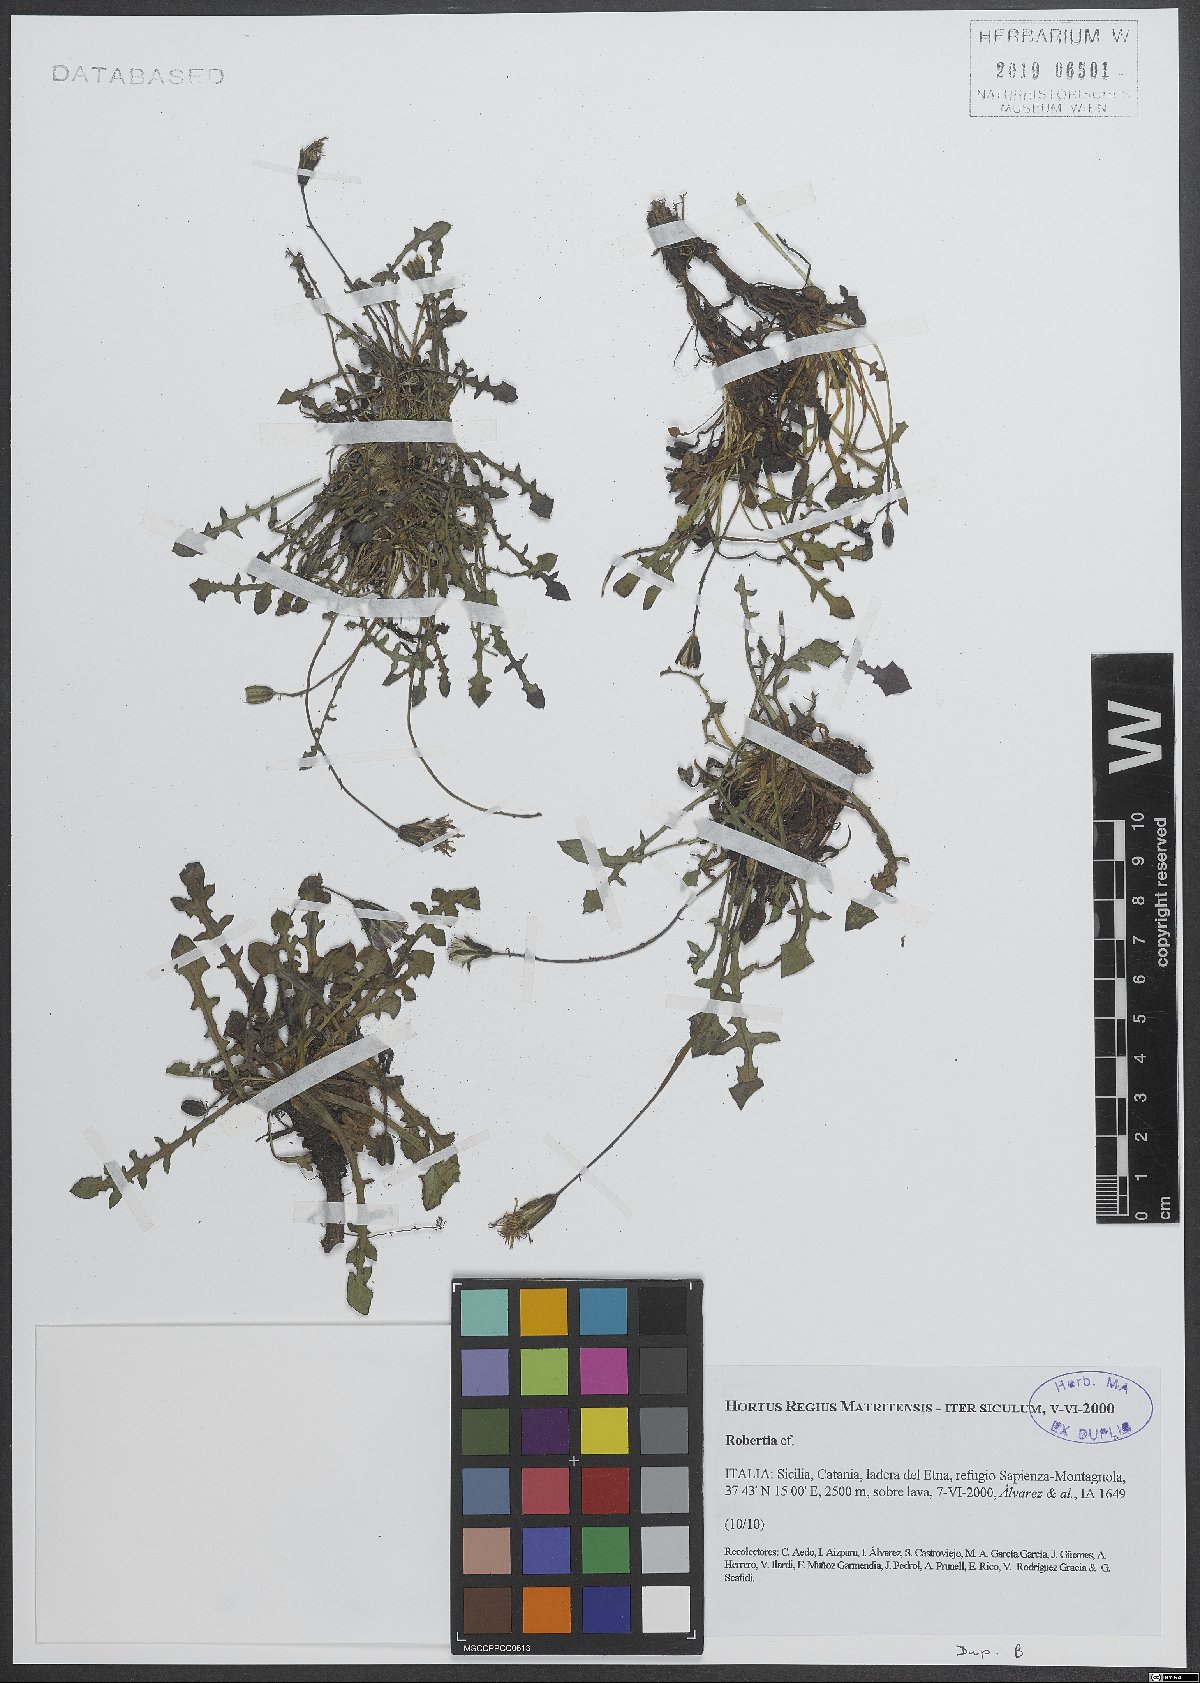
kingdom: Plantae
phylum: Tracheophyta
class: Pinopsida
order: Pinales
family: Phyllocladaceae
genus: Robertia
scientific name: Robertia
